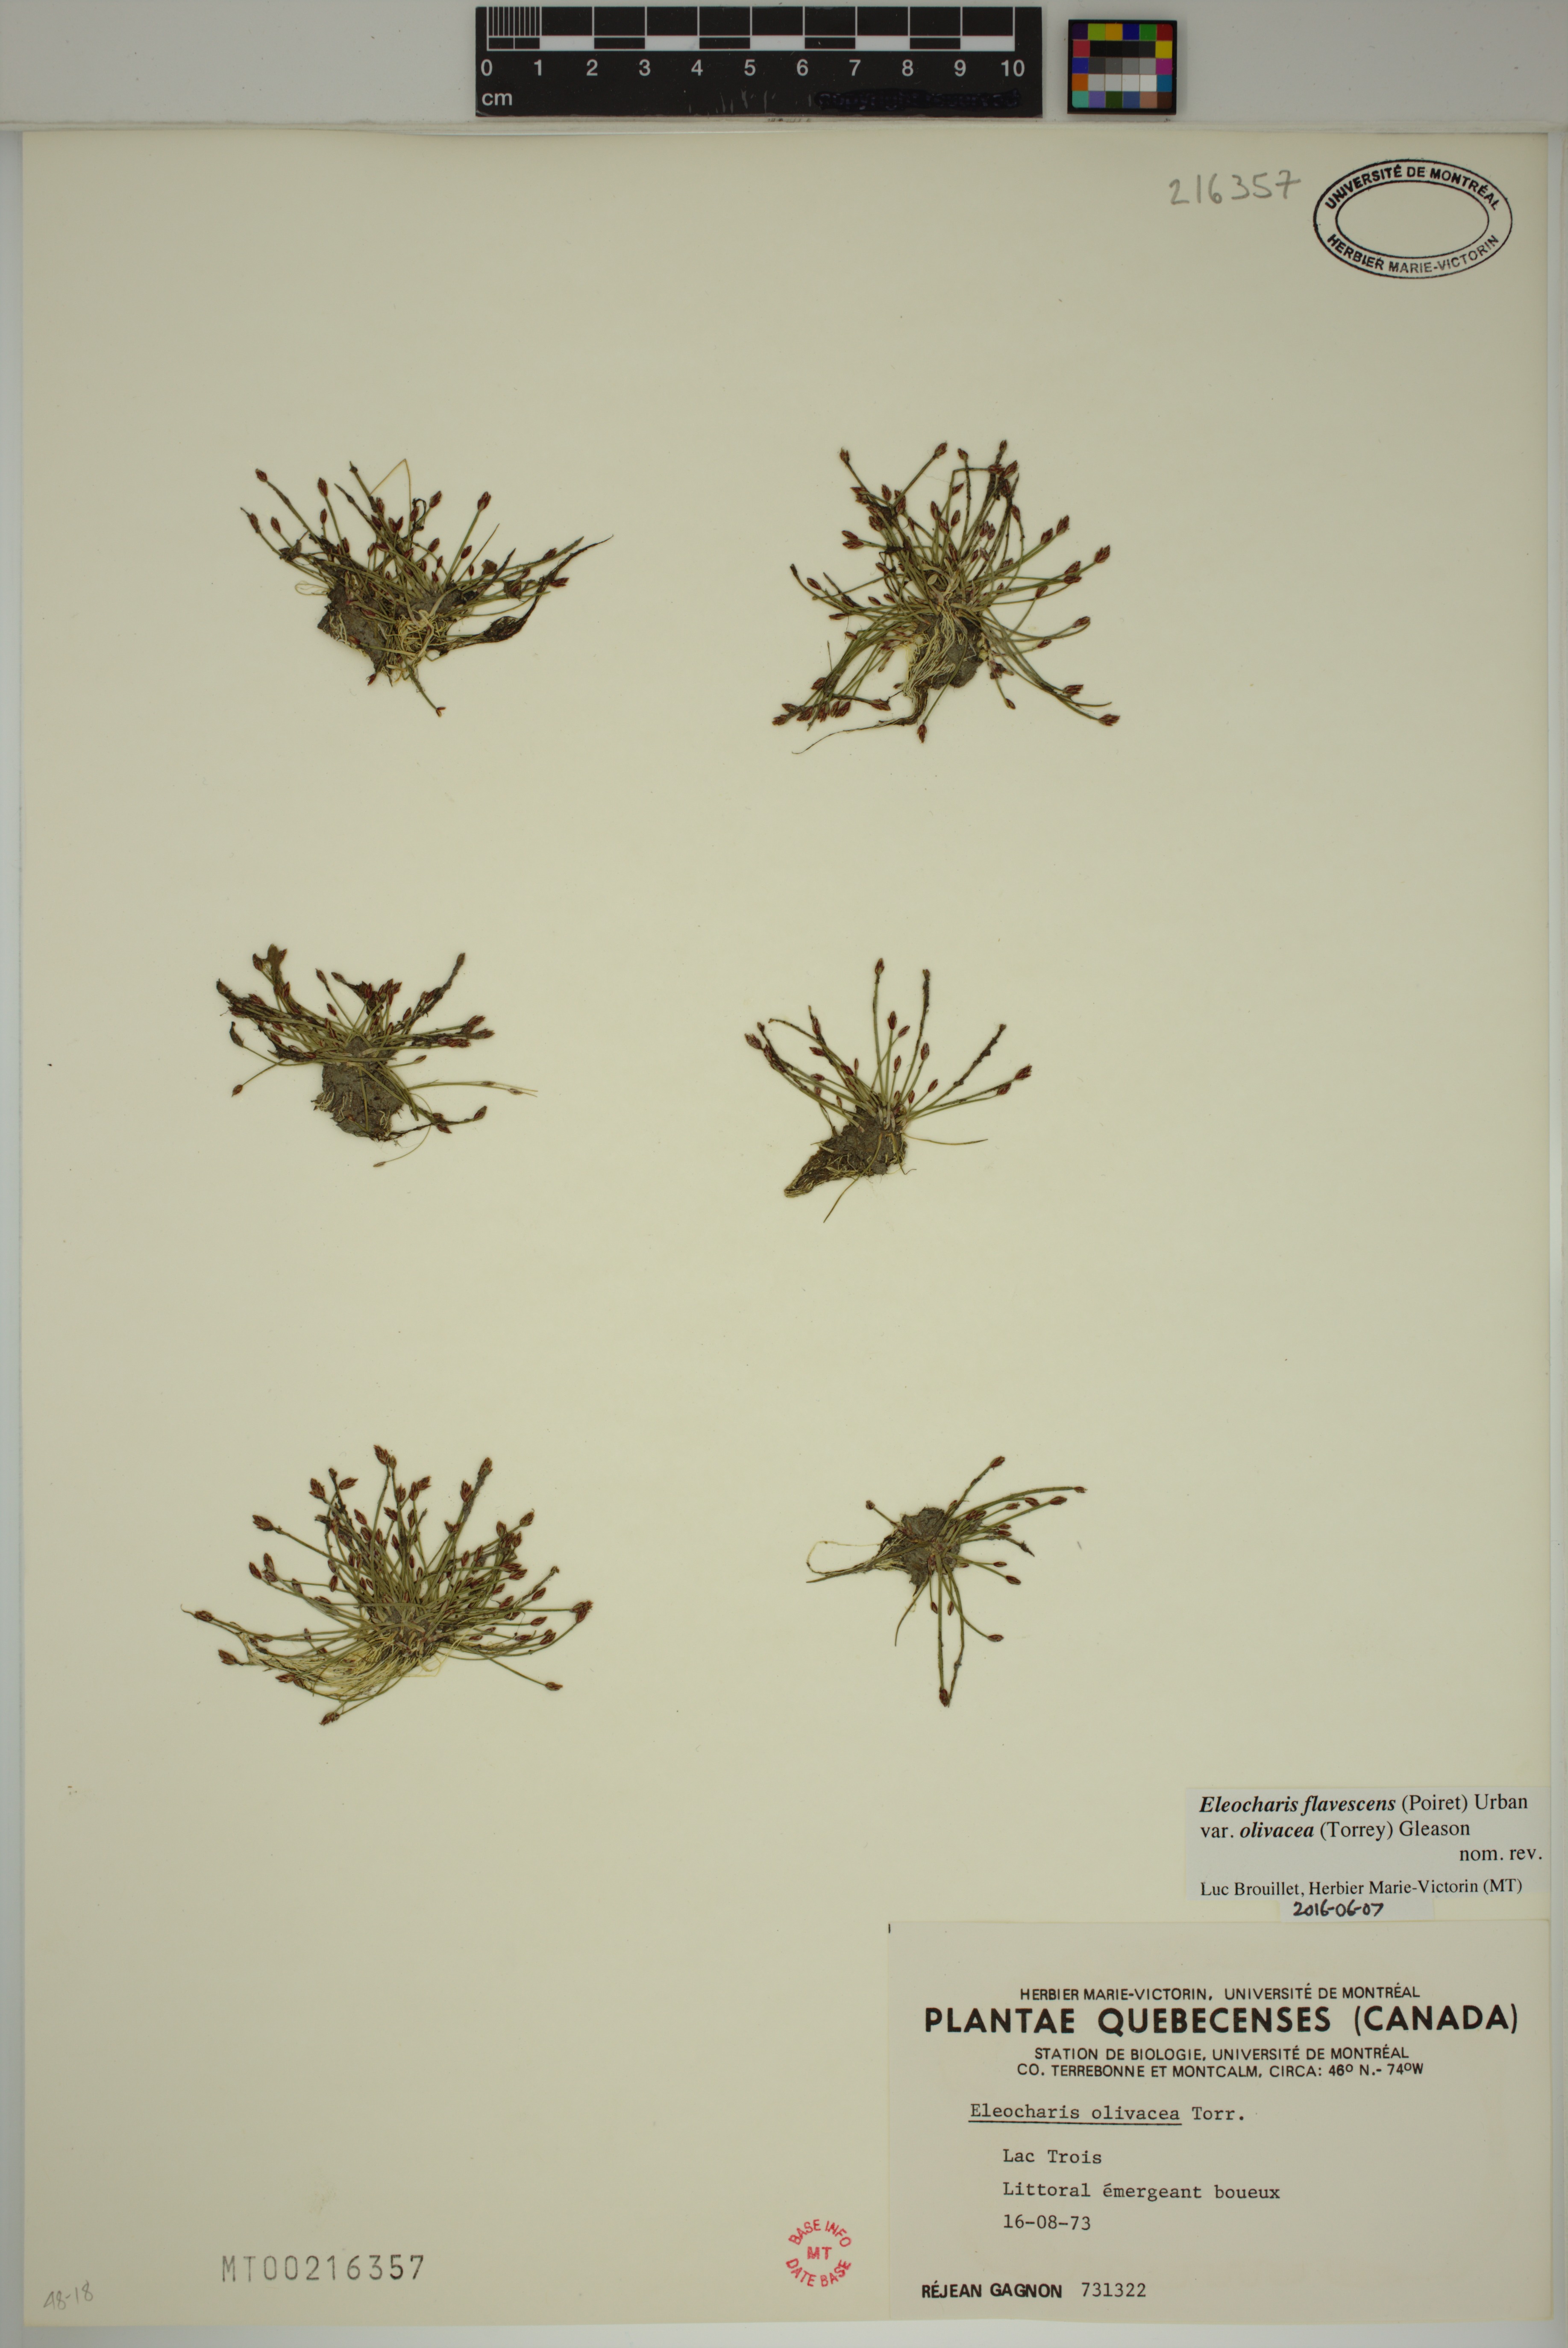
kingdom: Plantae
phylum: Tracheophyta
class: Liliopsida
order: Poales
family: Cyperaceae
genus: Eleocharis
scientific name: Eleocharis flavescens
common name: Yellow spikerush
